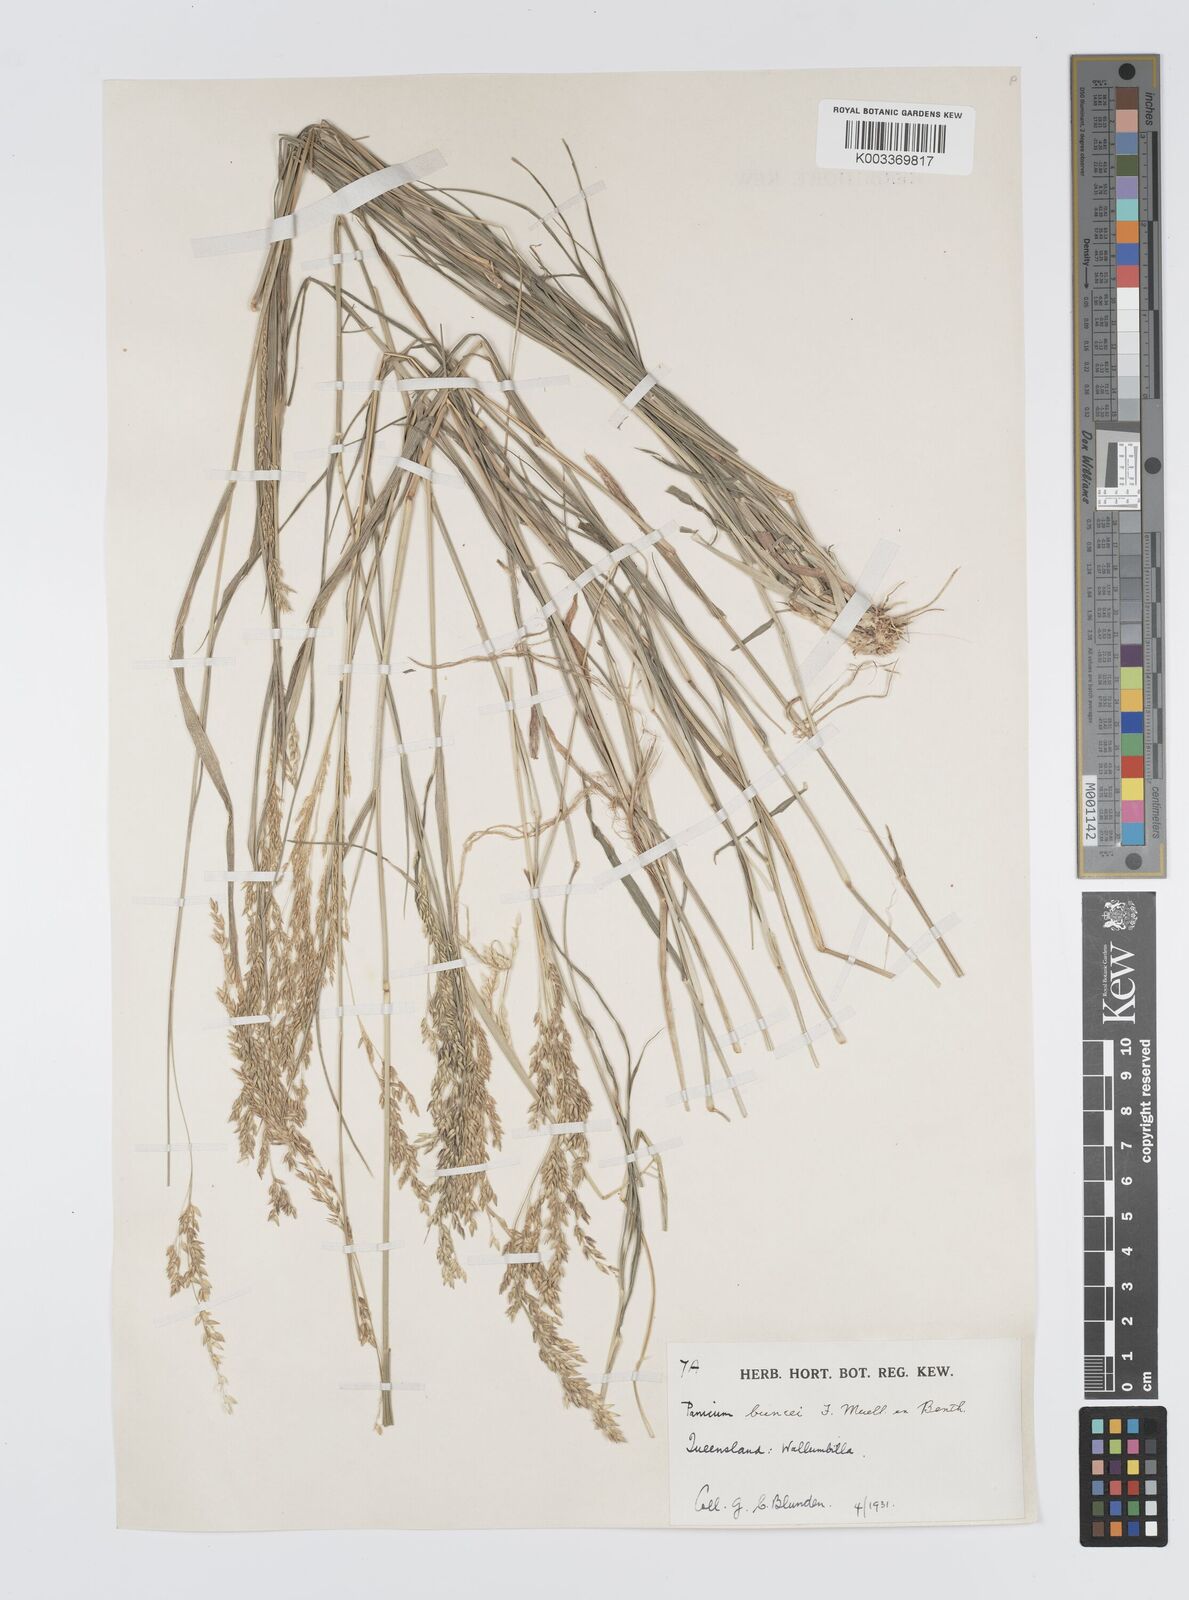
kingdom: Plantae
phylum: Tracheophyta
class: Liliopsida
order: Poales
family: Poaceae
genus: Panicum
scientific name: Panicum buncei
